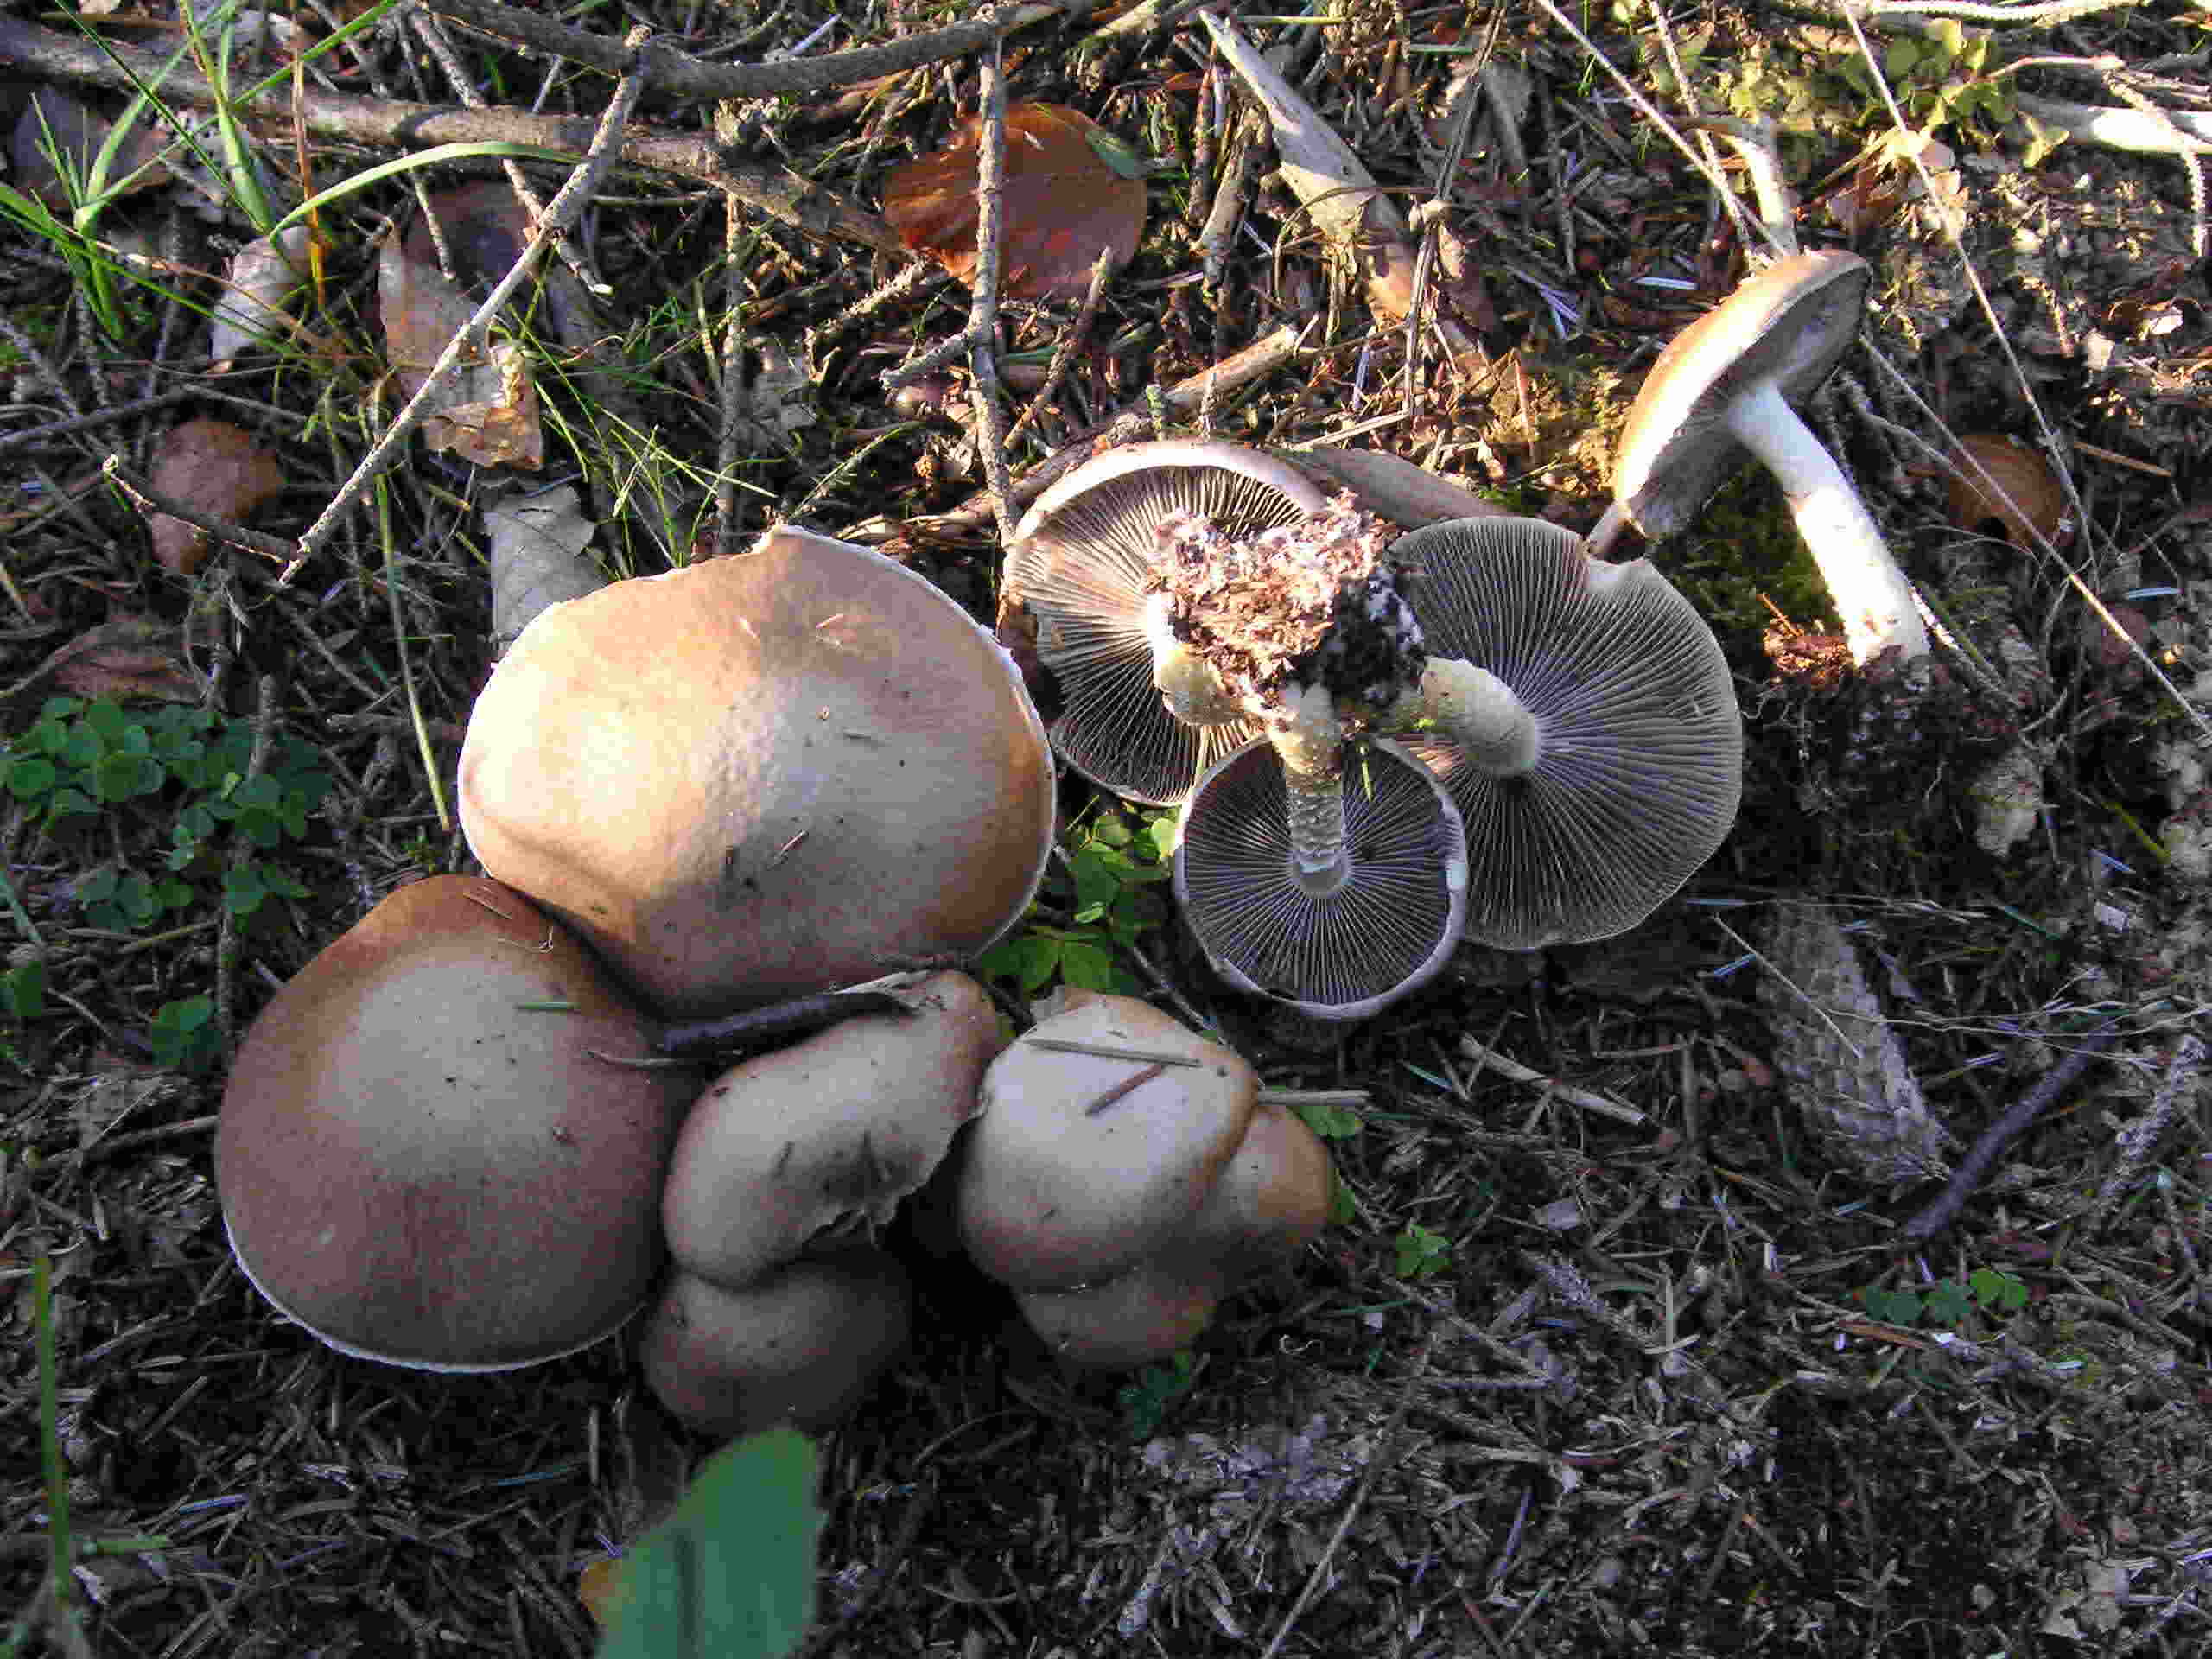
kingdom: Fungi
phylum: Basidiomycota
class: Agaricomycetes
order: Agaricales
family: Strophariaceae
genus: Stropharia
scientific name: Stropharia hornemannii
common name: nordisk bredblad
